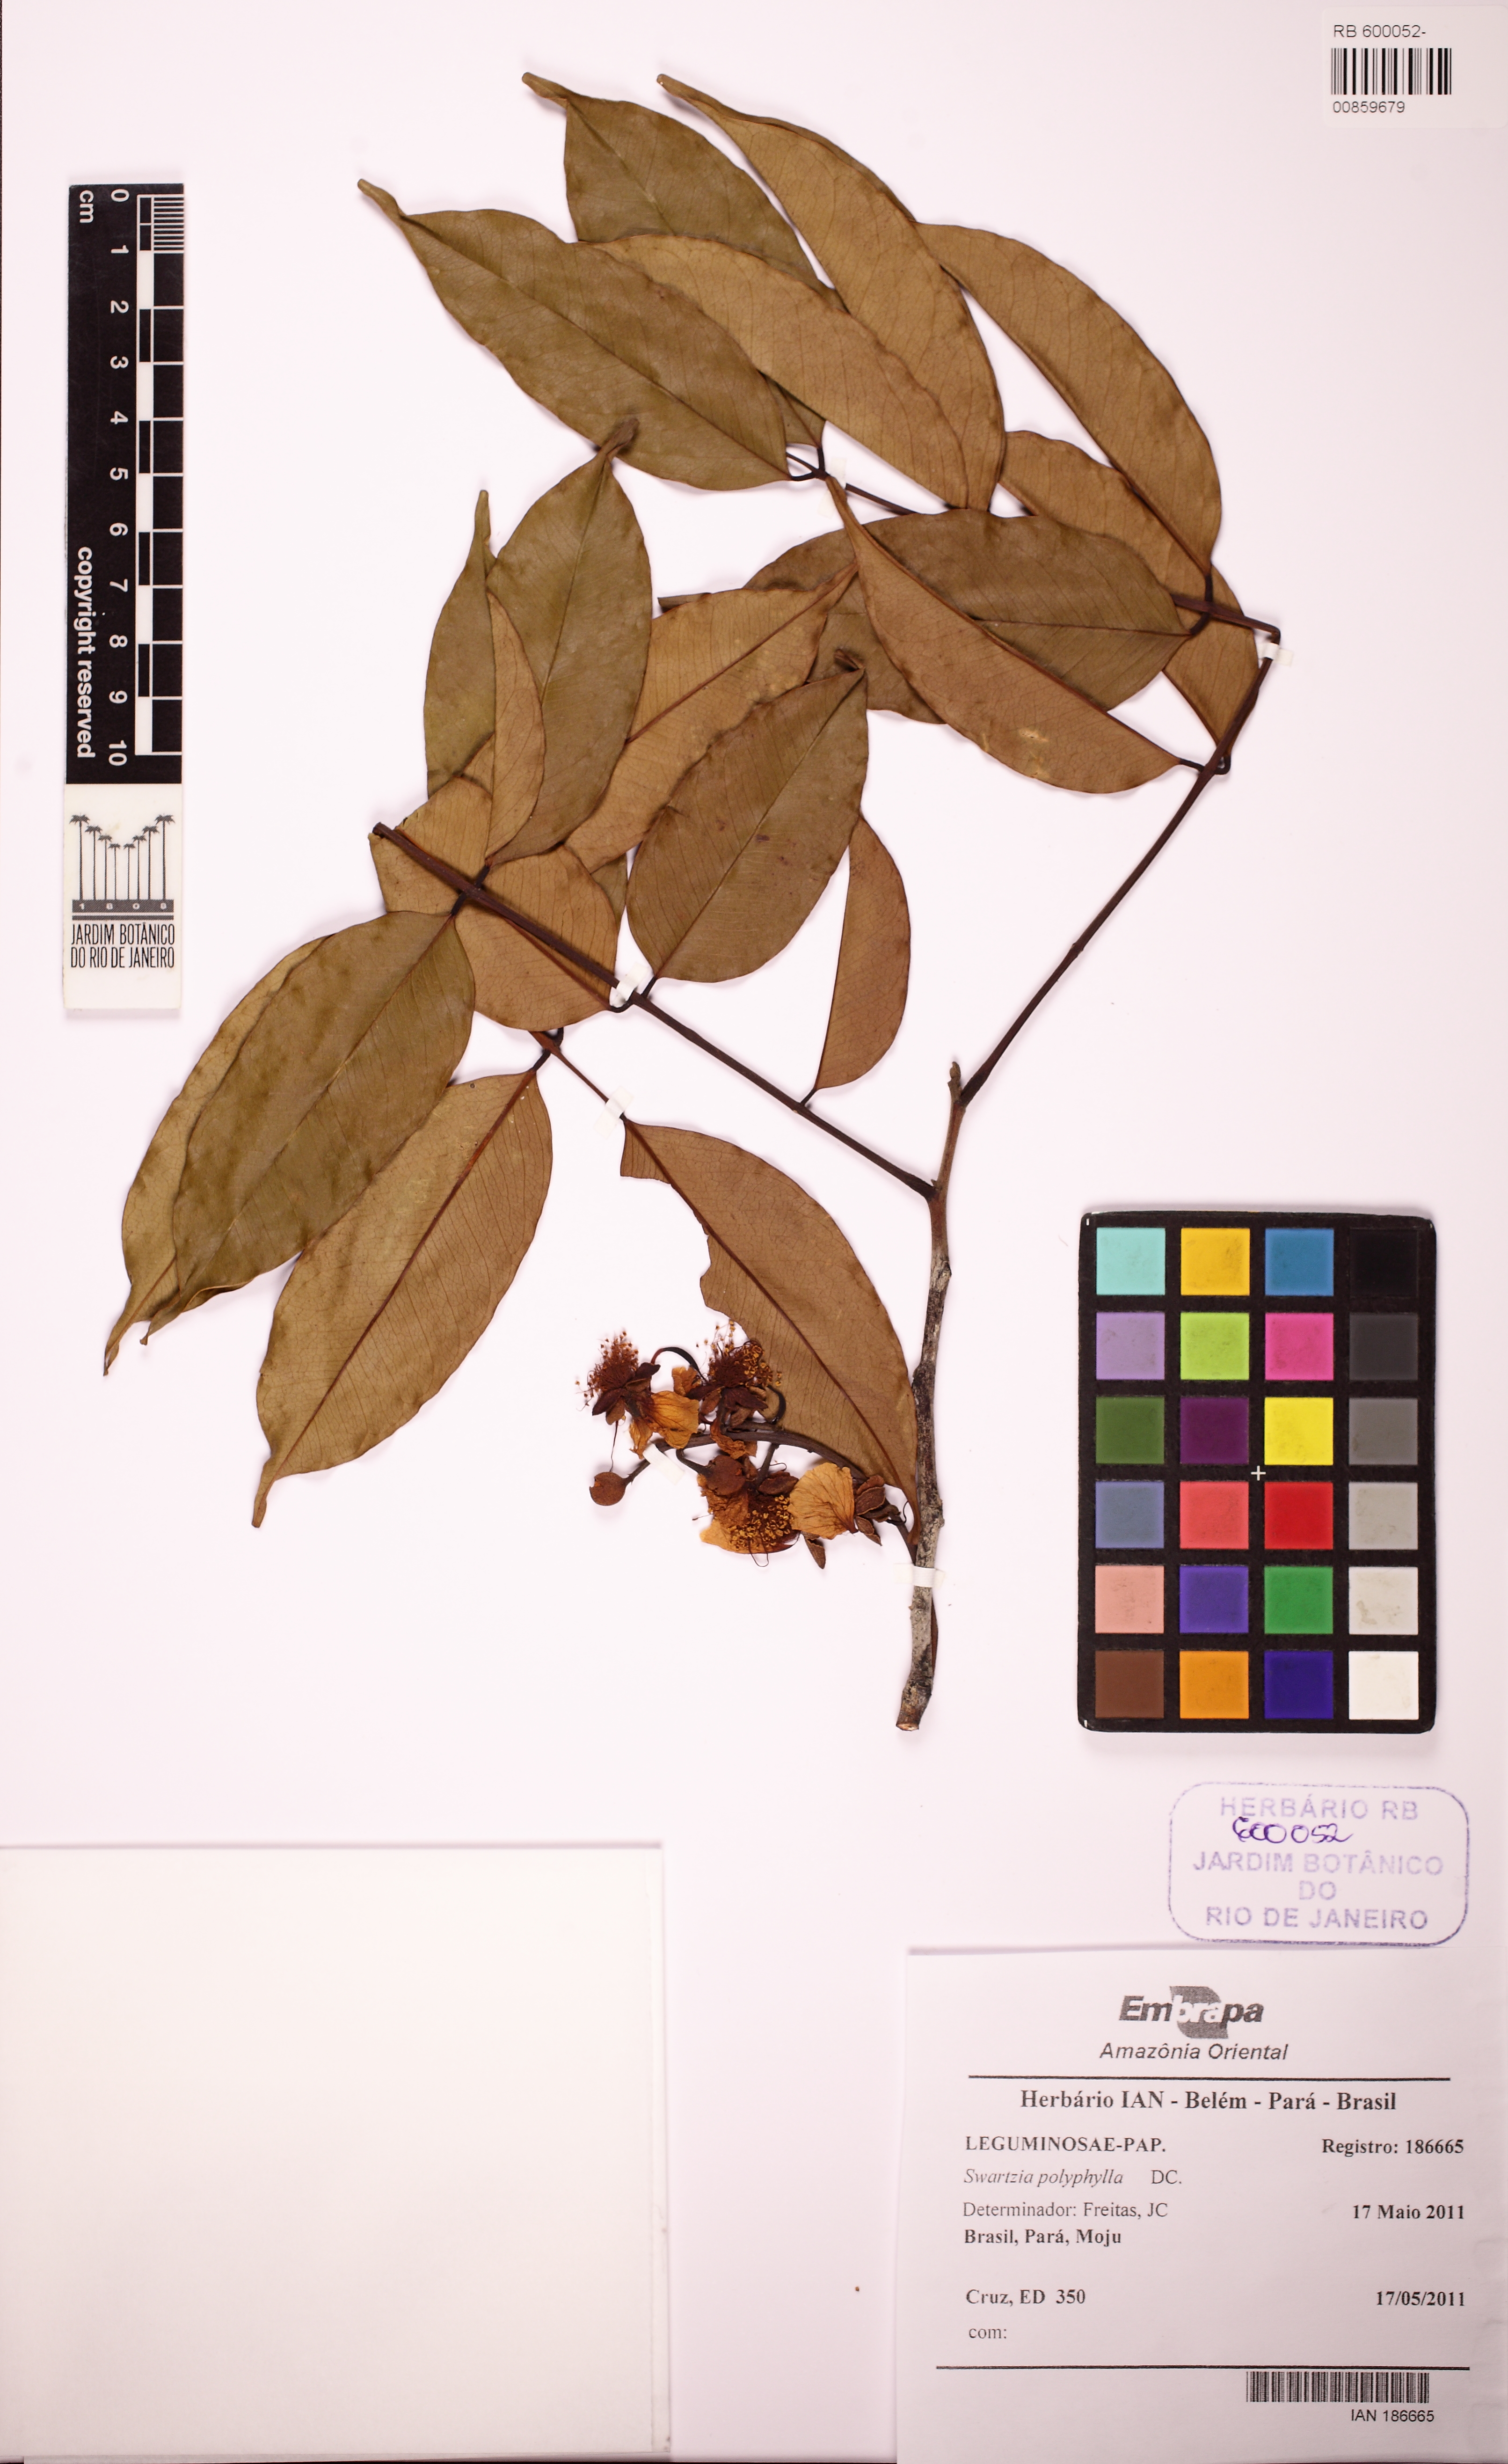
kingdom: Plantae
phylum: Tracheophyta
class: Magnoliopsida
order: Fabales
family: Fabaceae
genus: Swartzia
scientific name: Swartzia polyphylla
